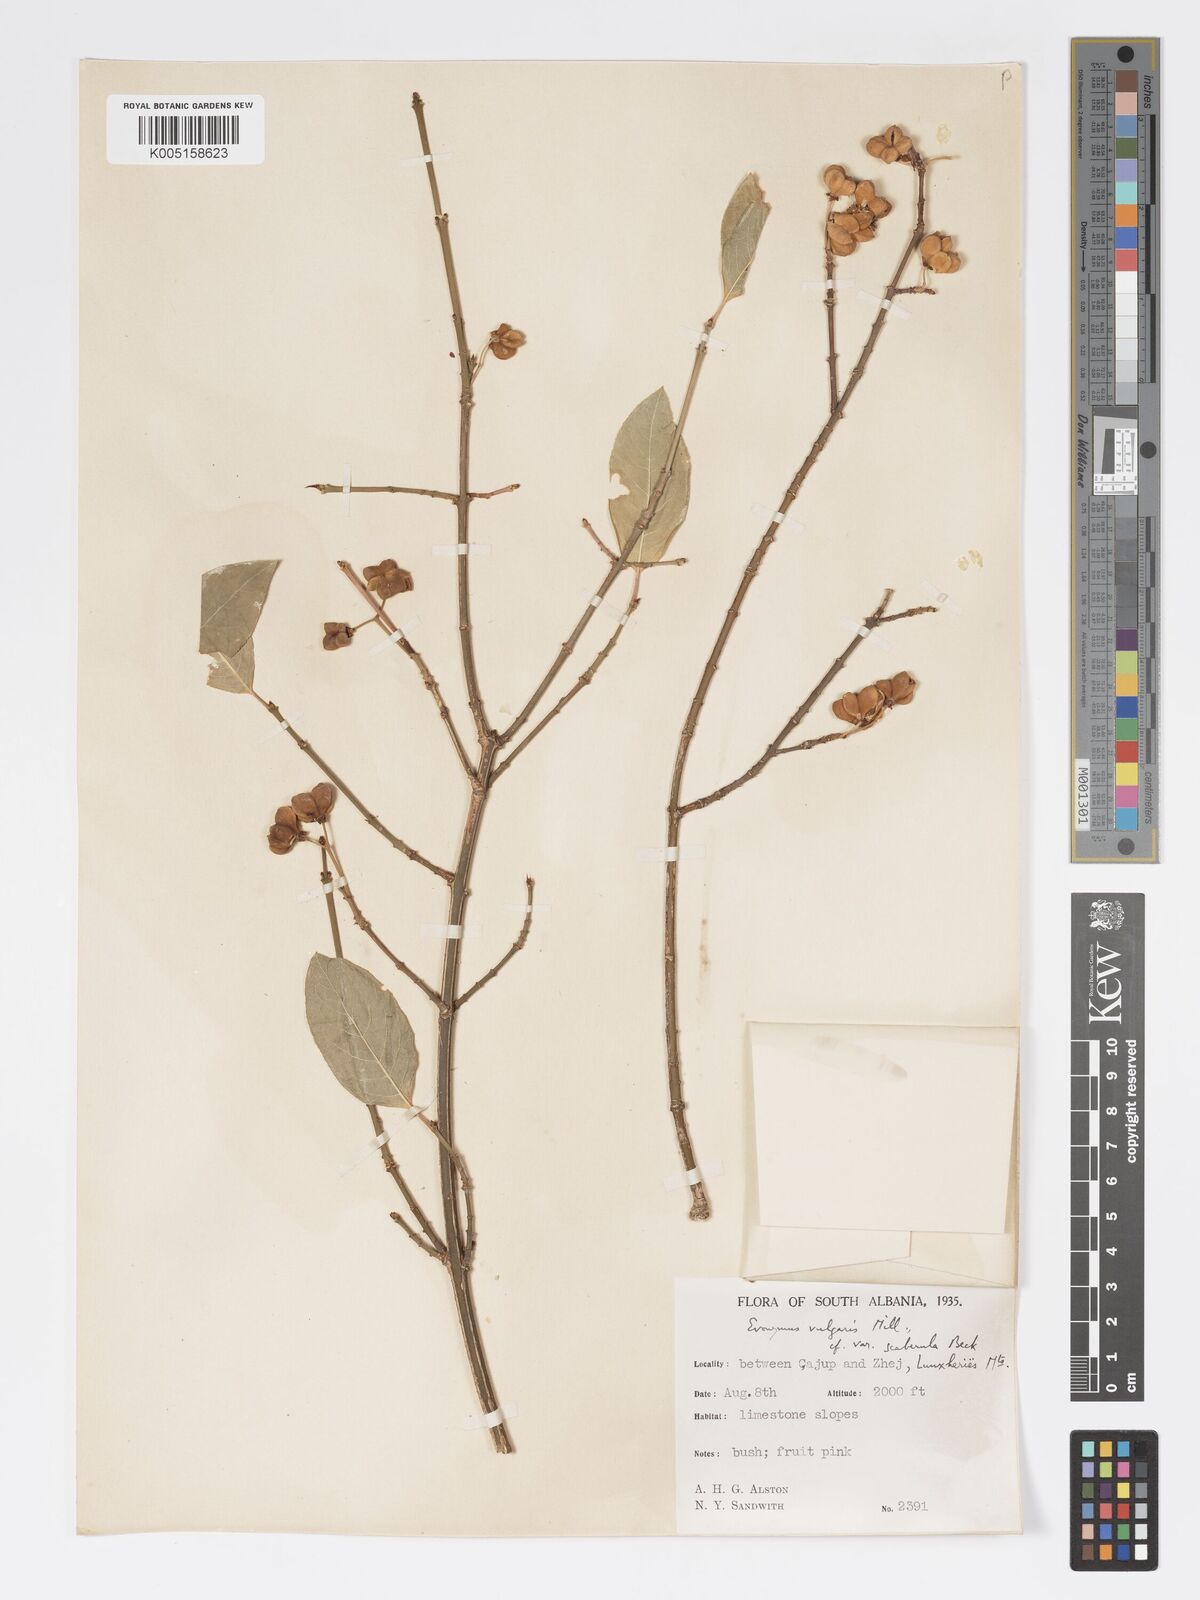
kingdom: Plantae
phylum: Tracheophyta
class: Magnoliopsida
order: Celastrales
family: Celastraceae
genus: Euonymus
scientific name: Euonymus europaeus
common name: Spindle
